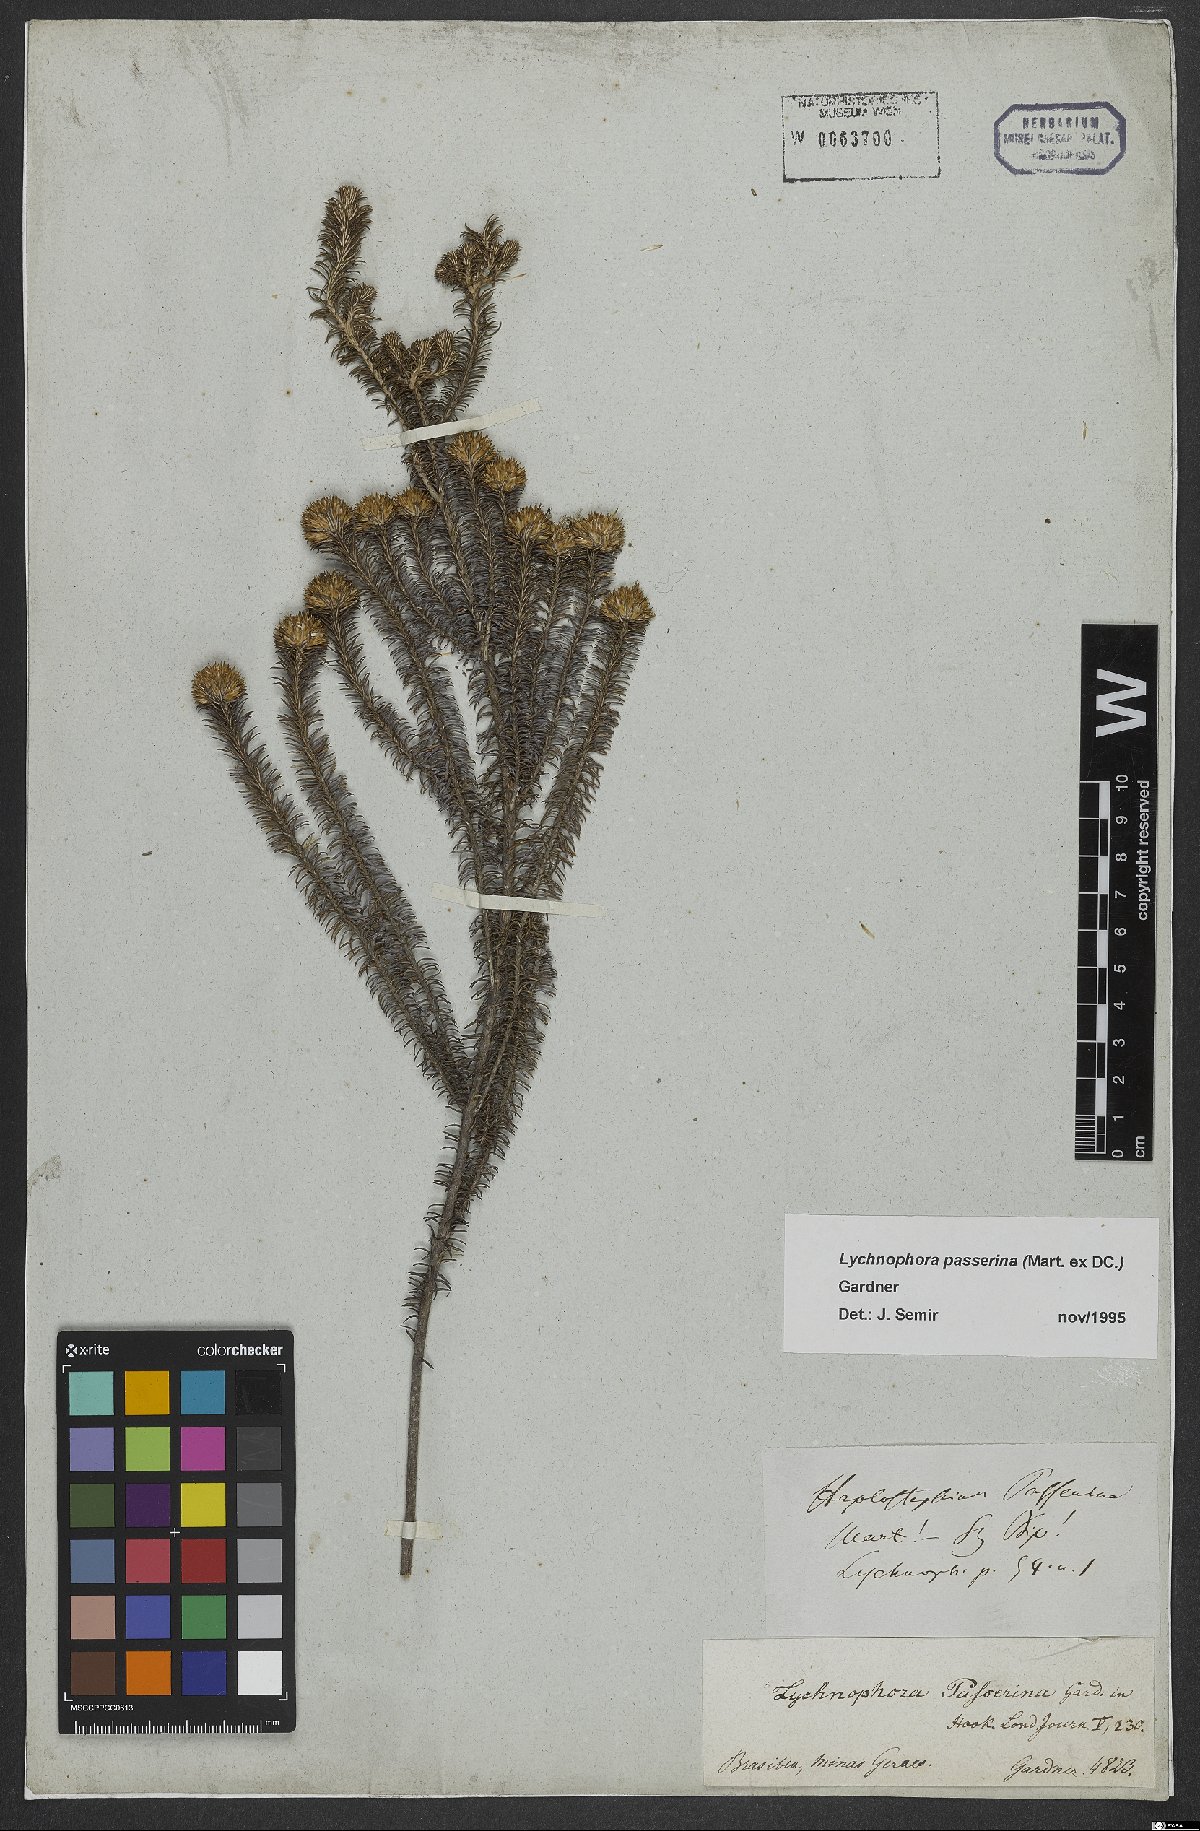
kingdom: Plantae
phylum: Tracheophyta
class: Magnoliopsida
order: Asterales
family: Asteraceae
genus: Lychnophora
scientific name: Lychnophora passerina
